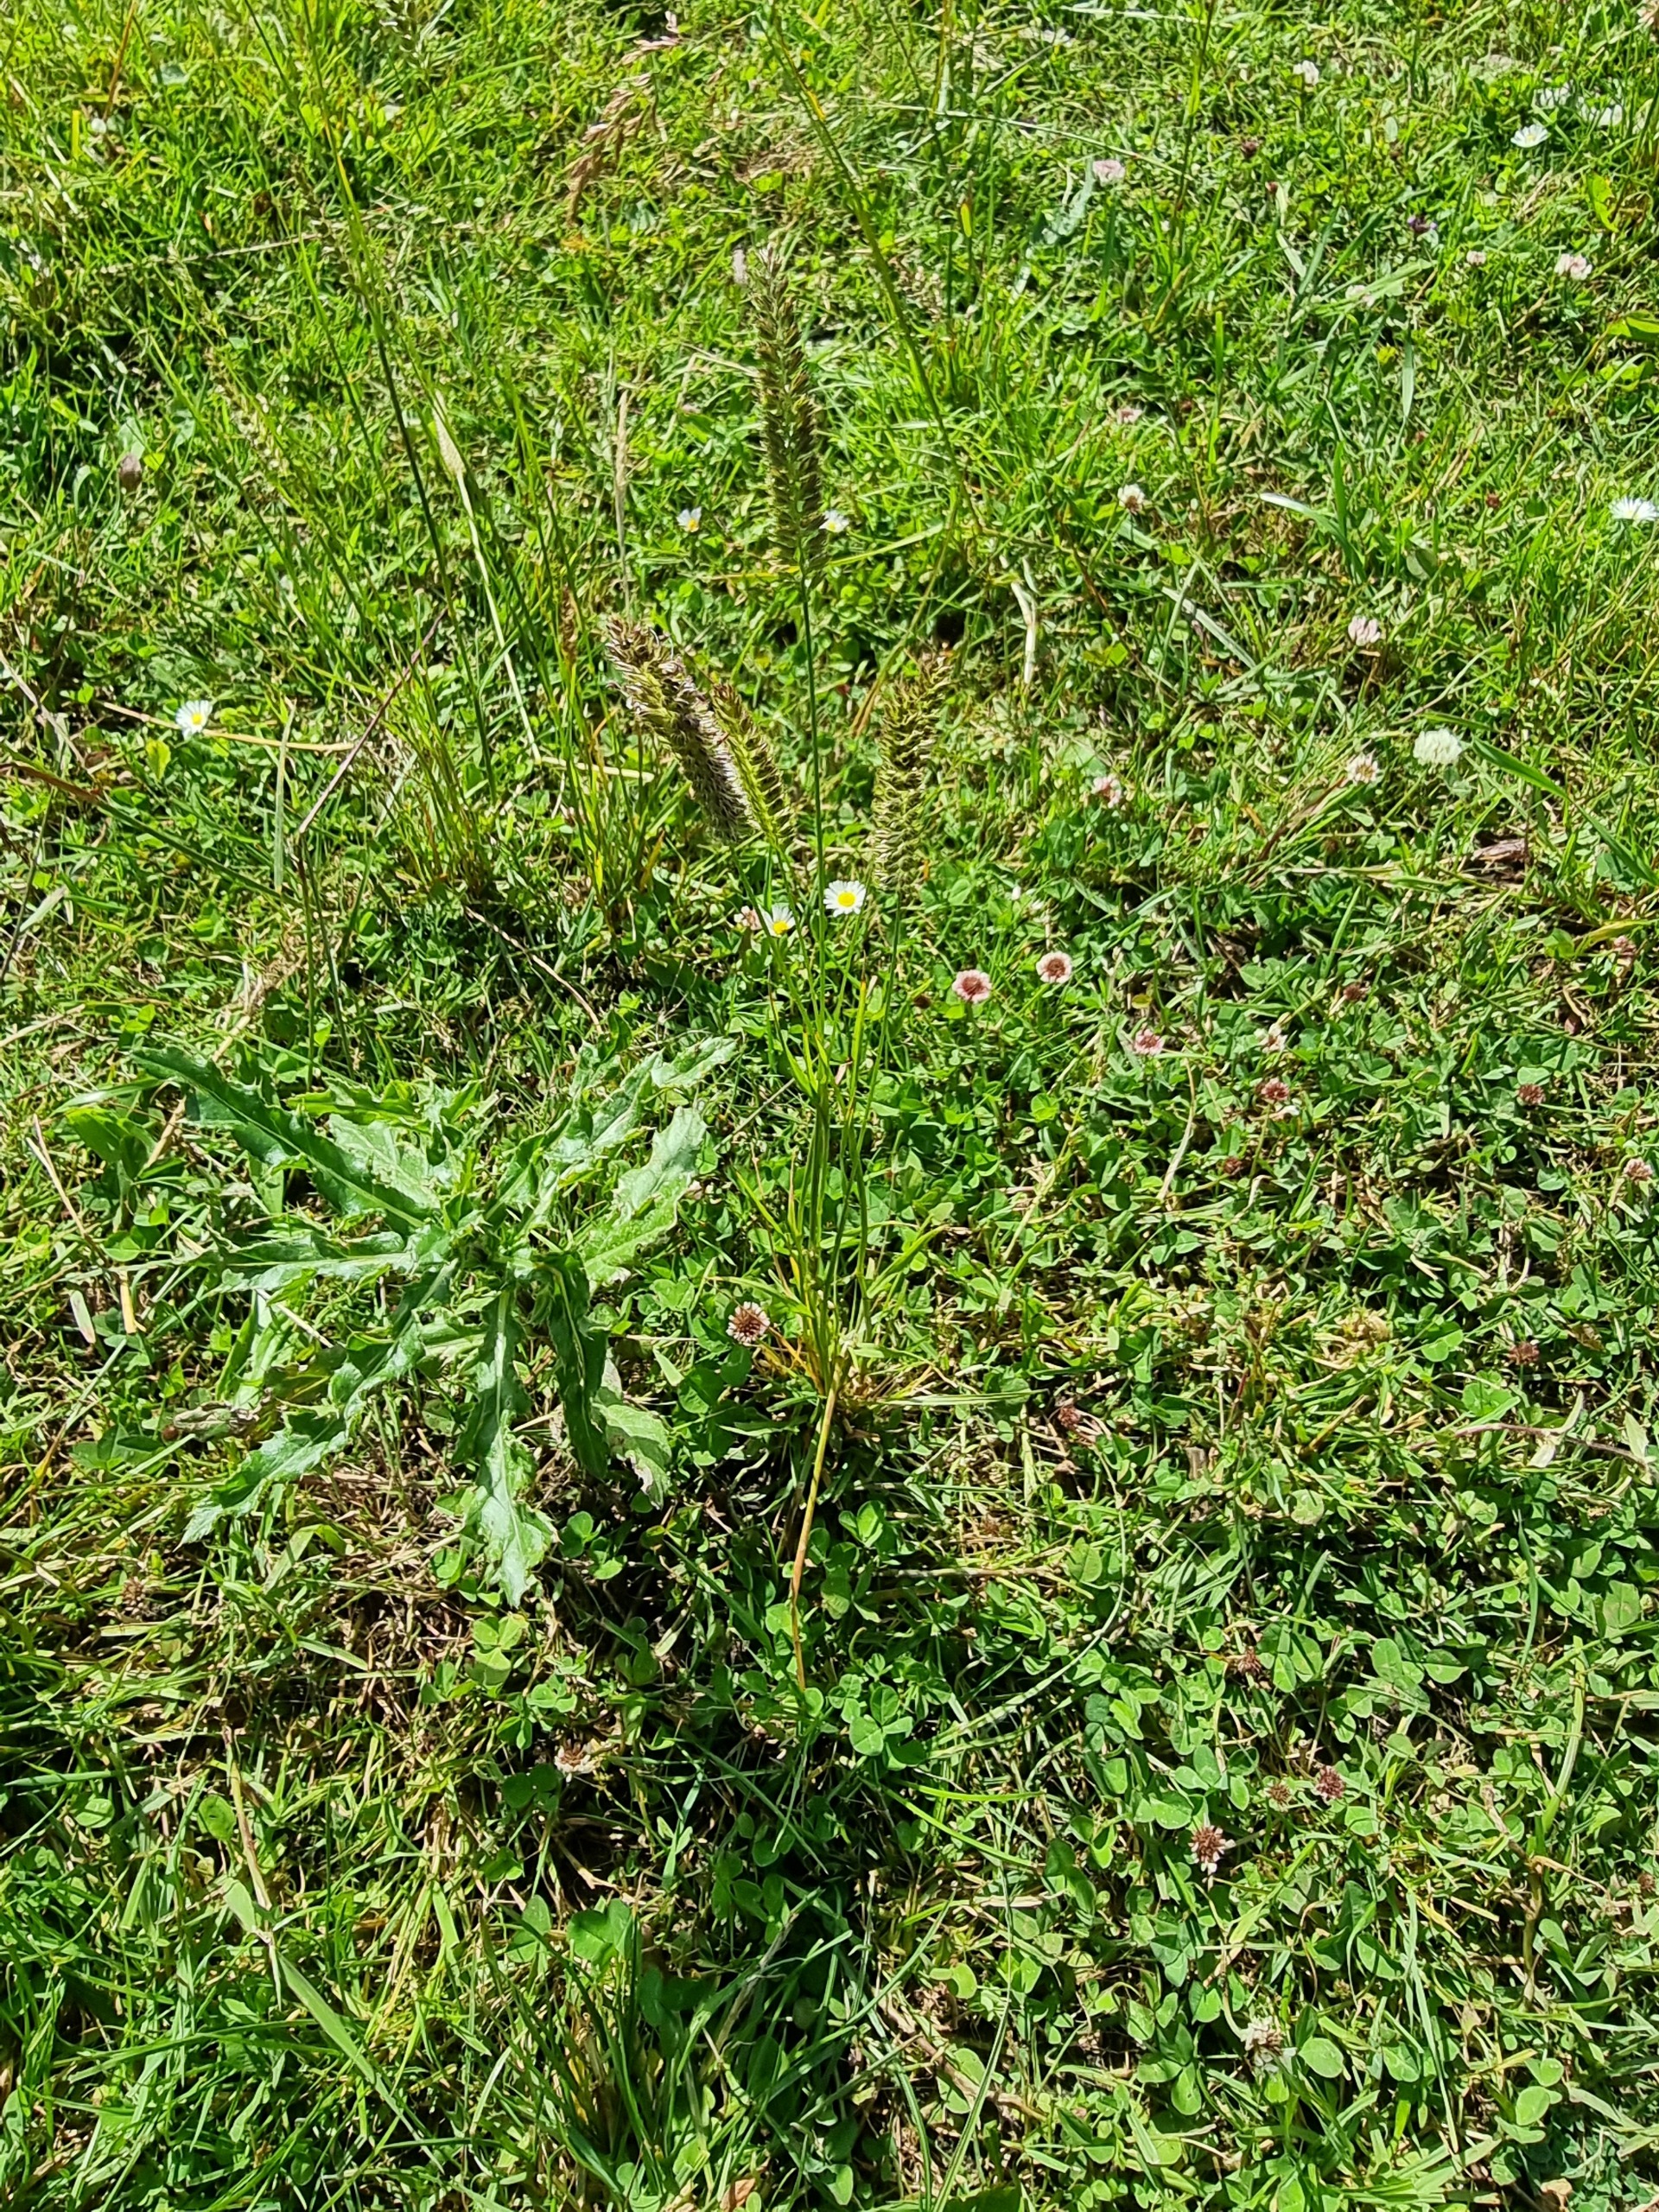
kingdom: Plantae
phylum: Tracheophyta
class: Liliopsida
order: Poales
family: Poaceae
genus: Cynosurus
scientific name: Cynosurus cristatus
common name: Kamgræs
